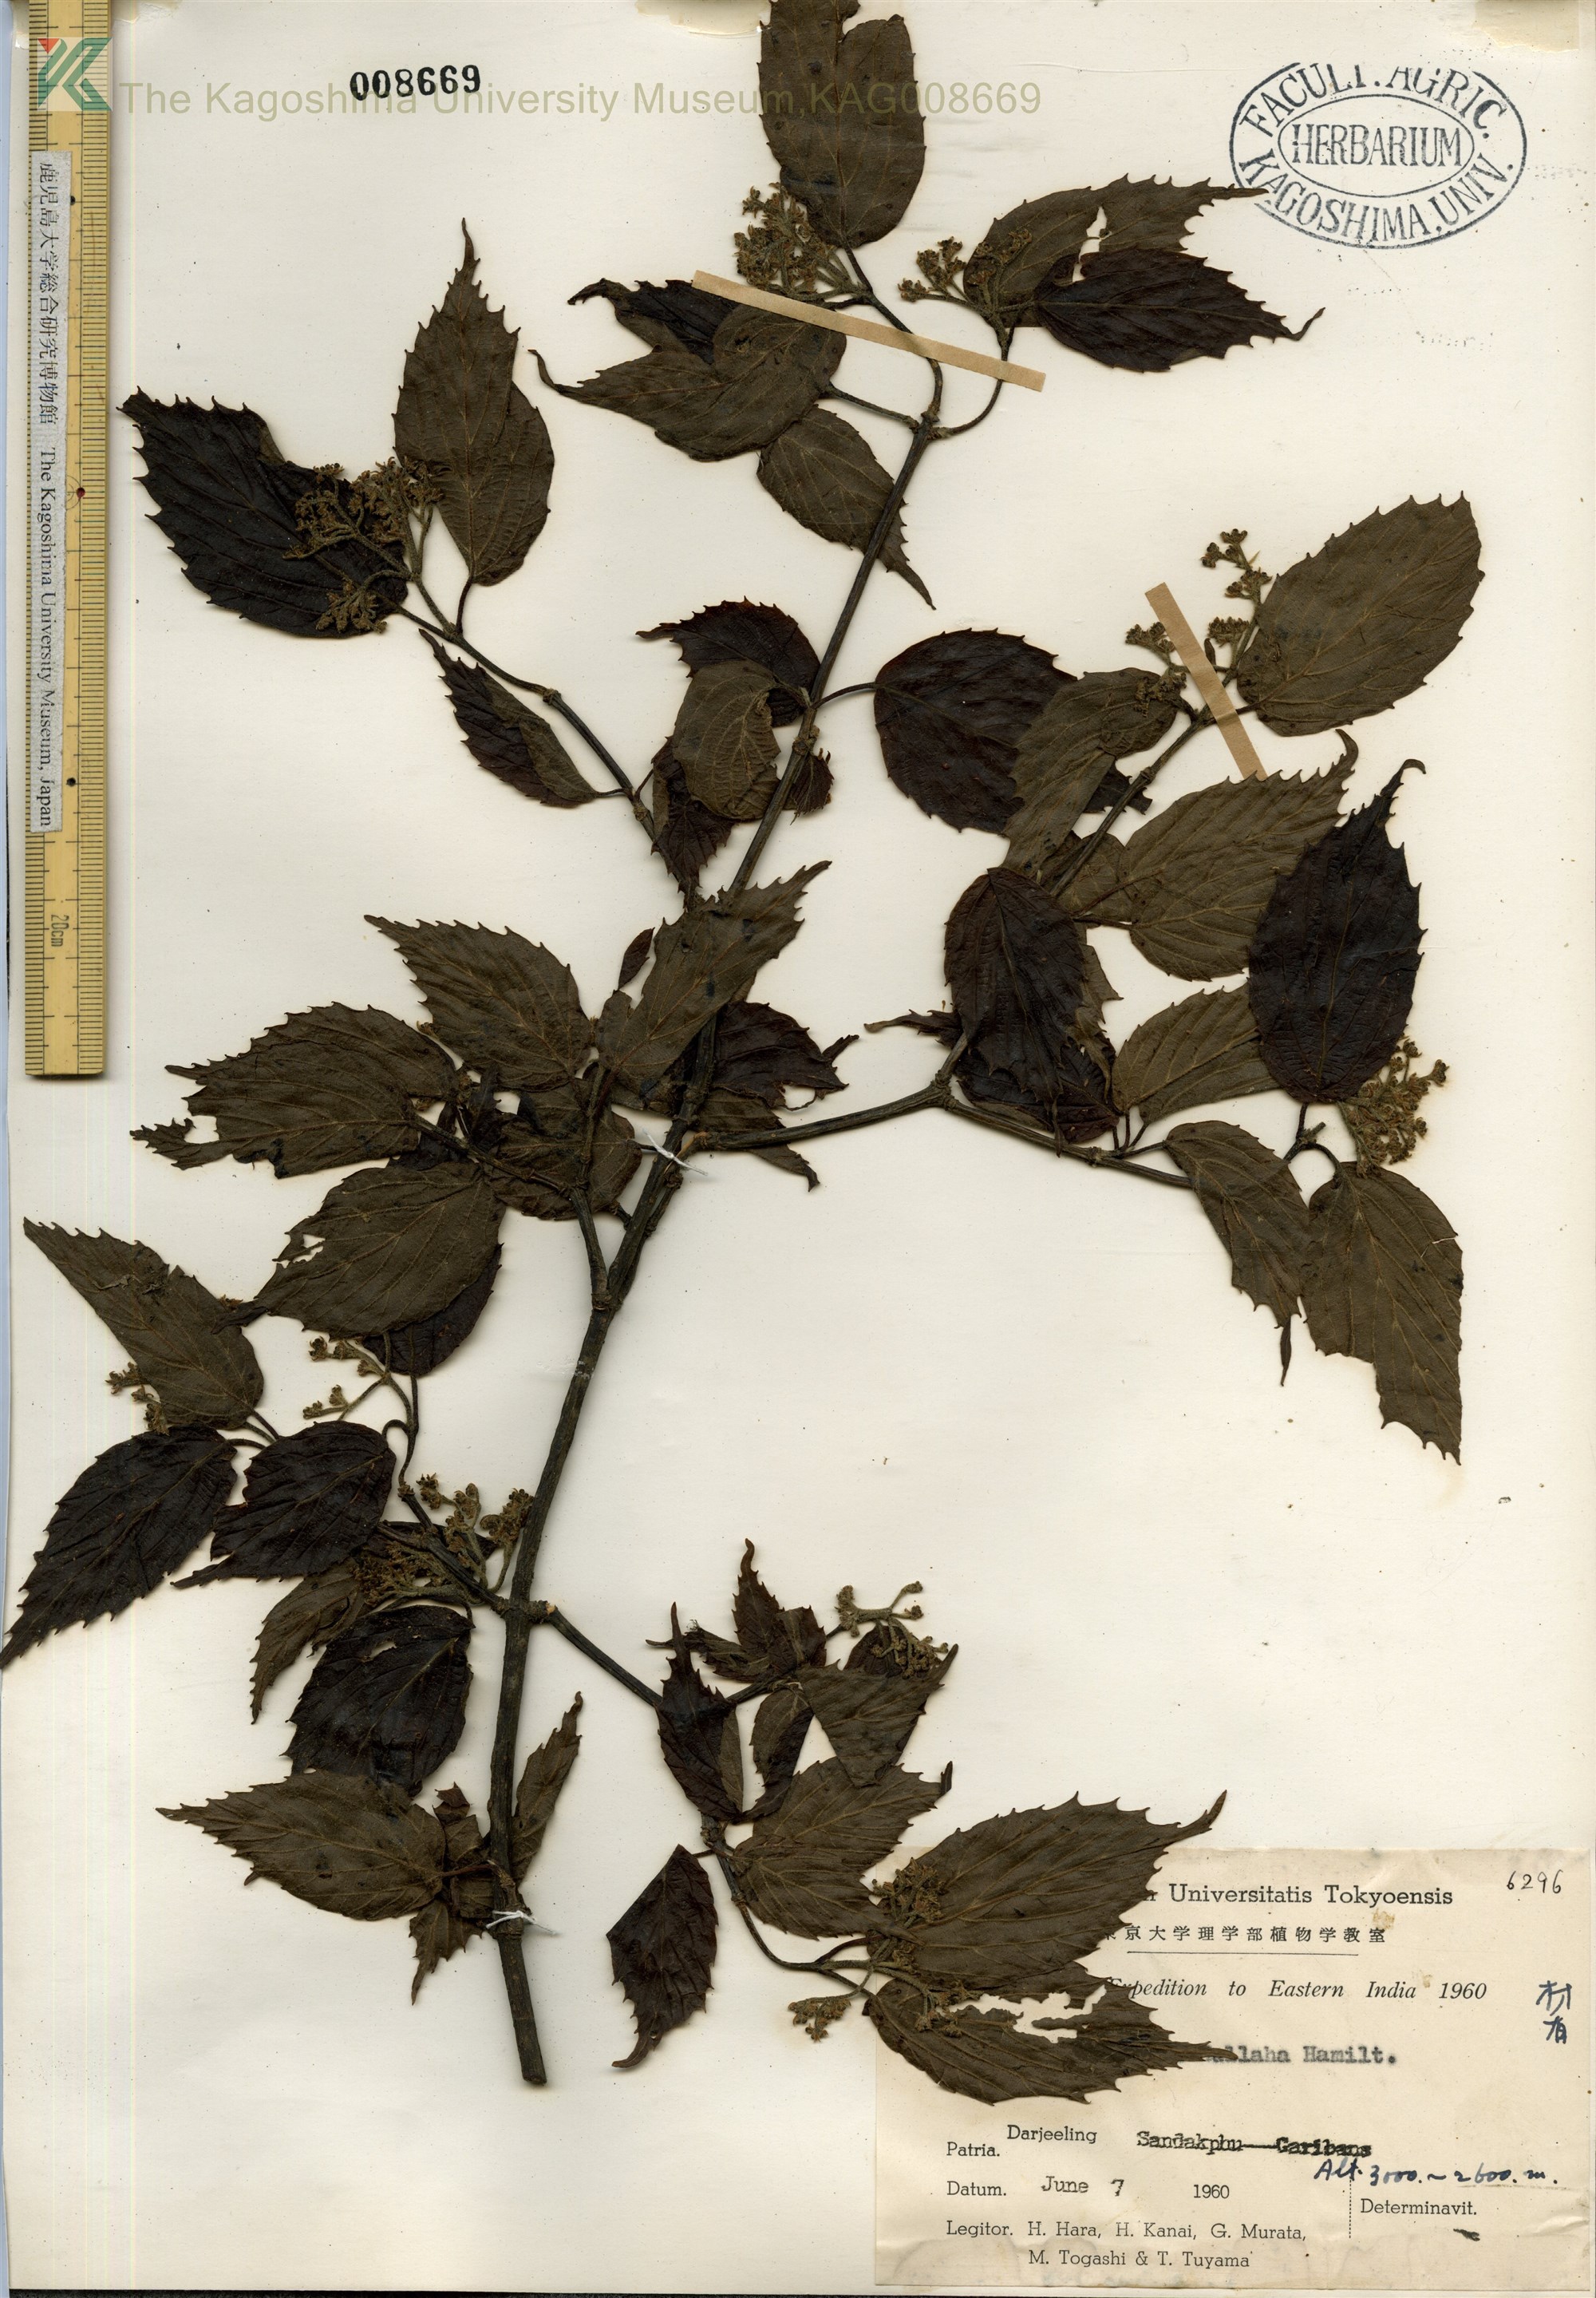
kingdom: Plantae
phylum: Tracheophyta
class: Magnoliopsida
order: Dipsacales
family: Viburnaceae
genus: Viburnum
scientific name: Viburnum mullaha
